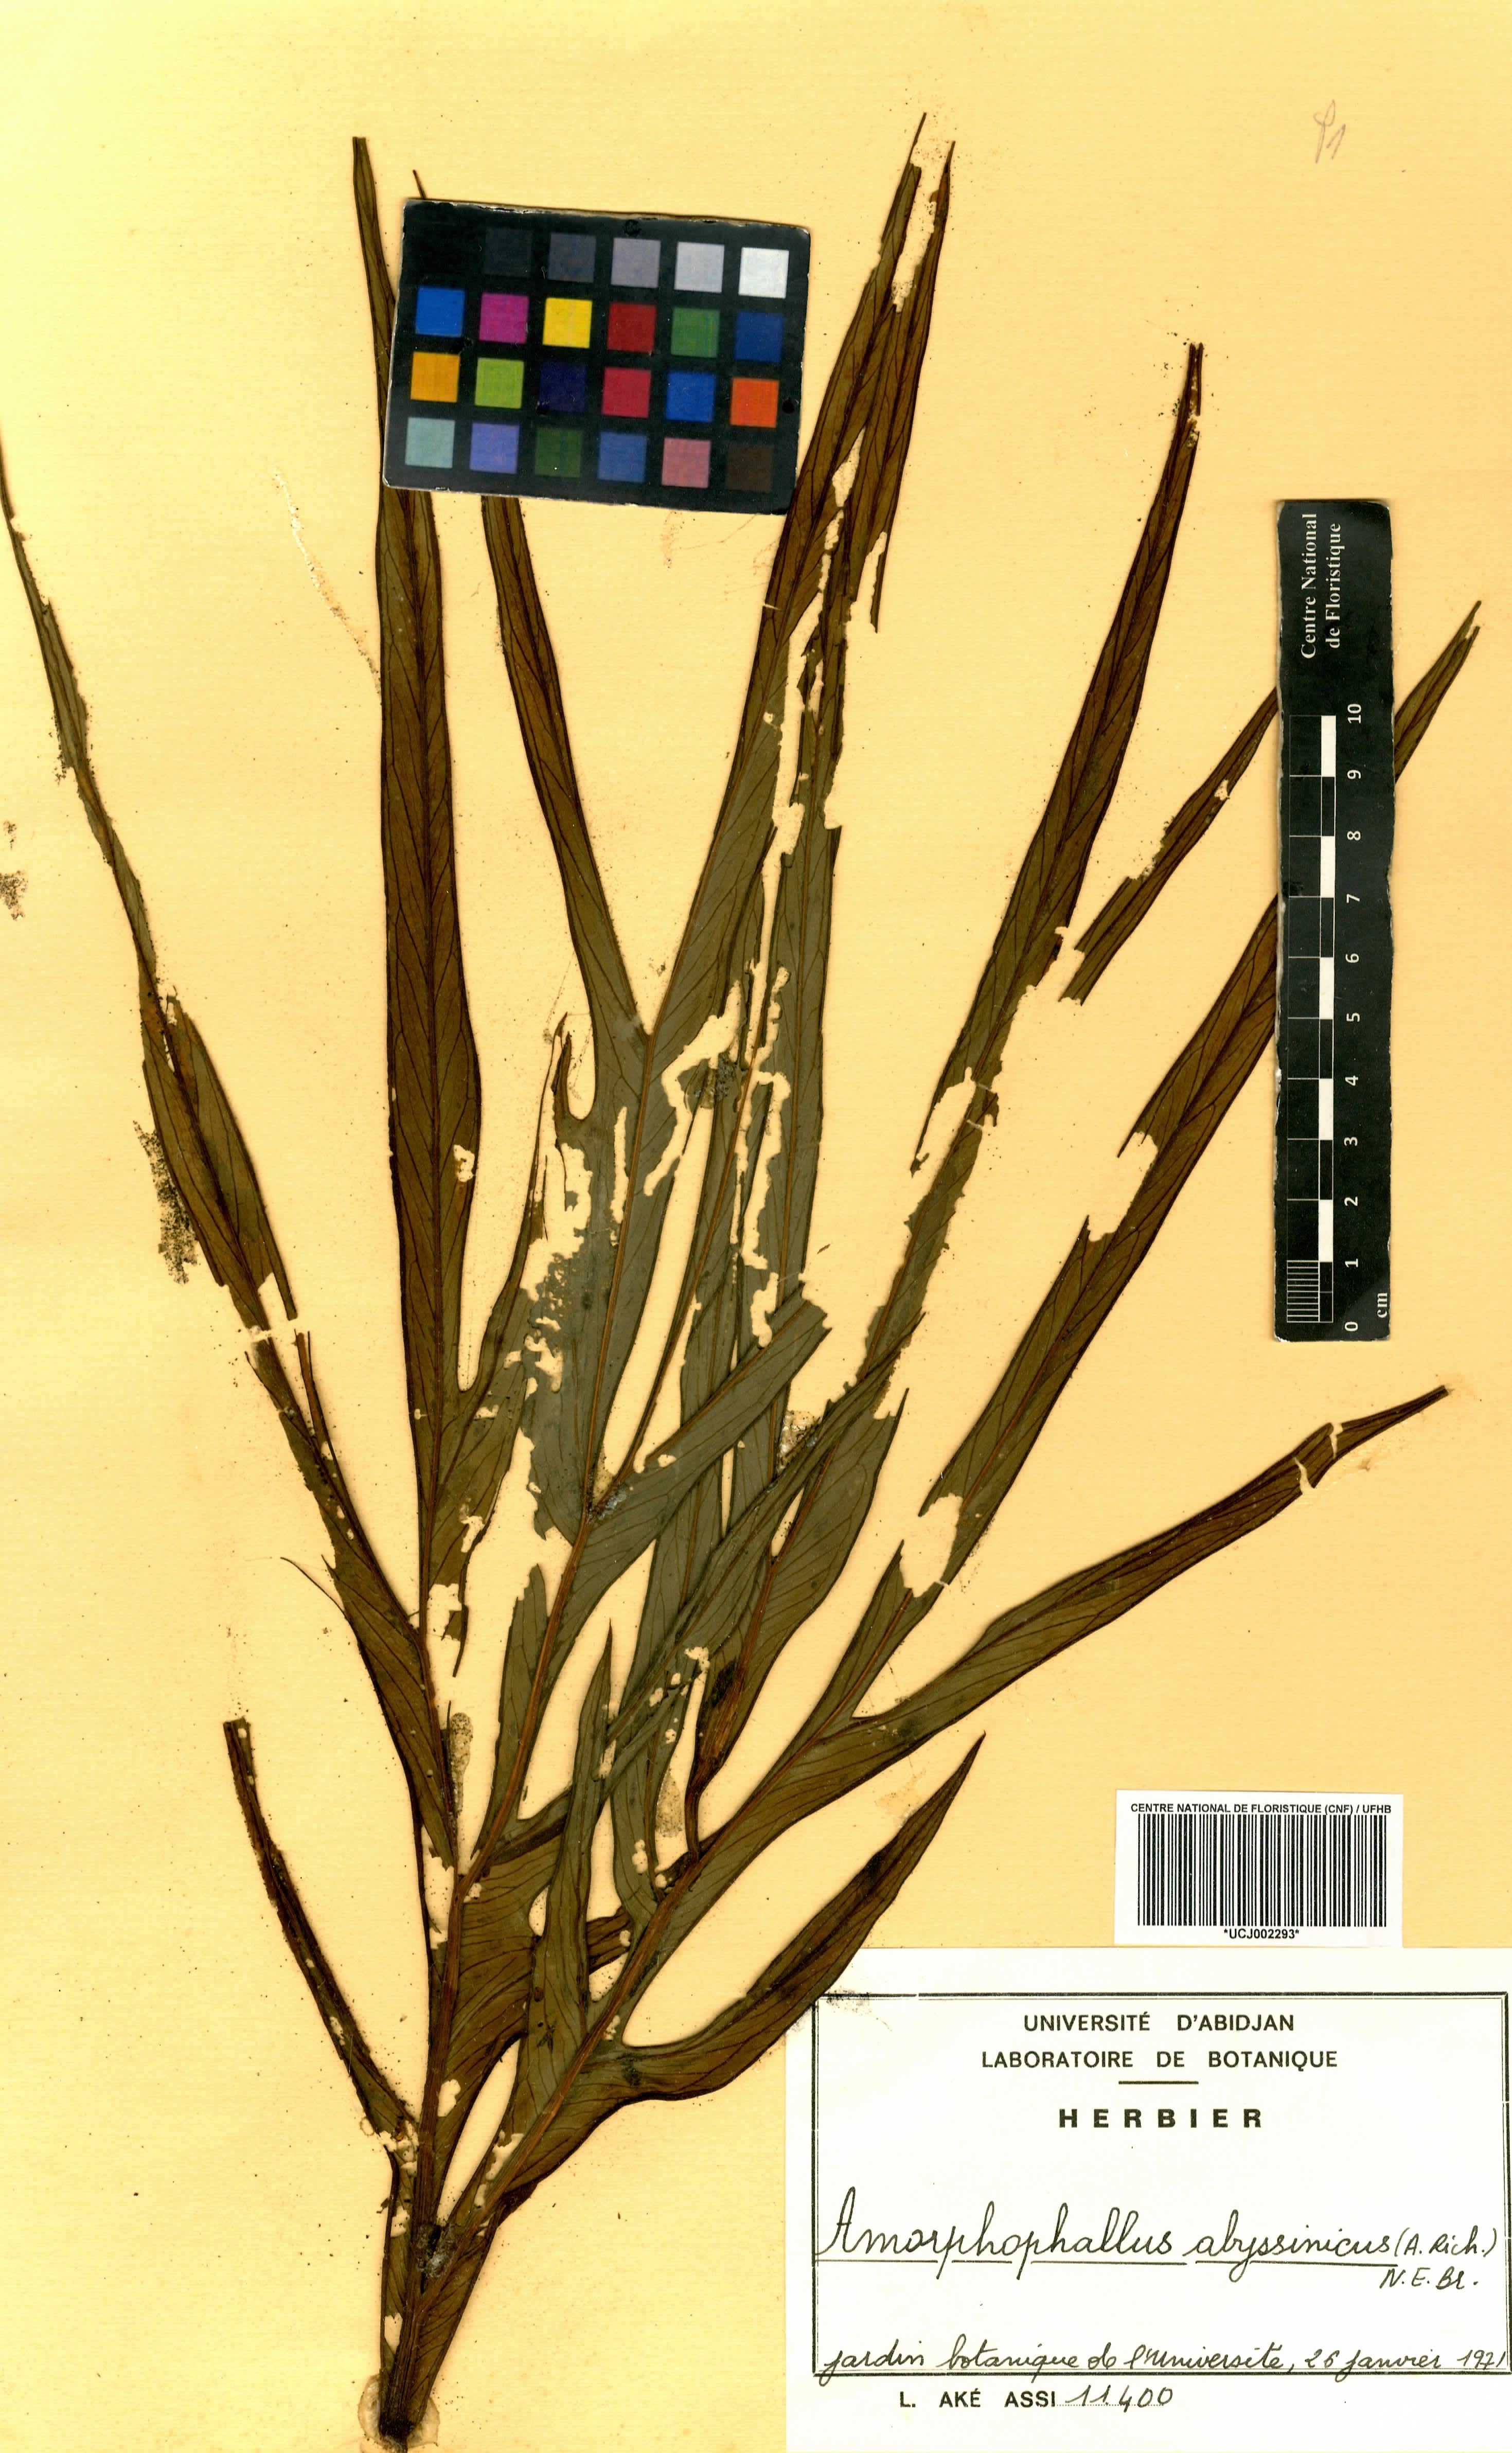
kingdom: Plantae
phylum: Tracheophyta
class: Liliopsida
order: Alismatales
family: Araceae
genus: Amorphophallus
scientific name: Amorphophallus abyssinicus
